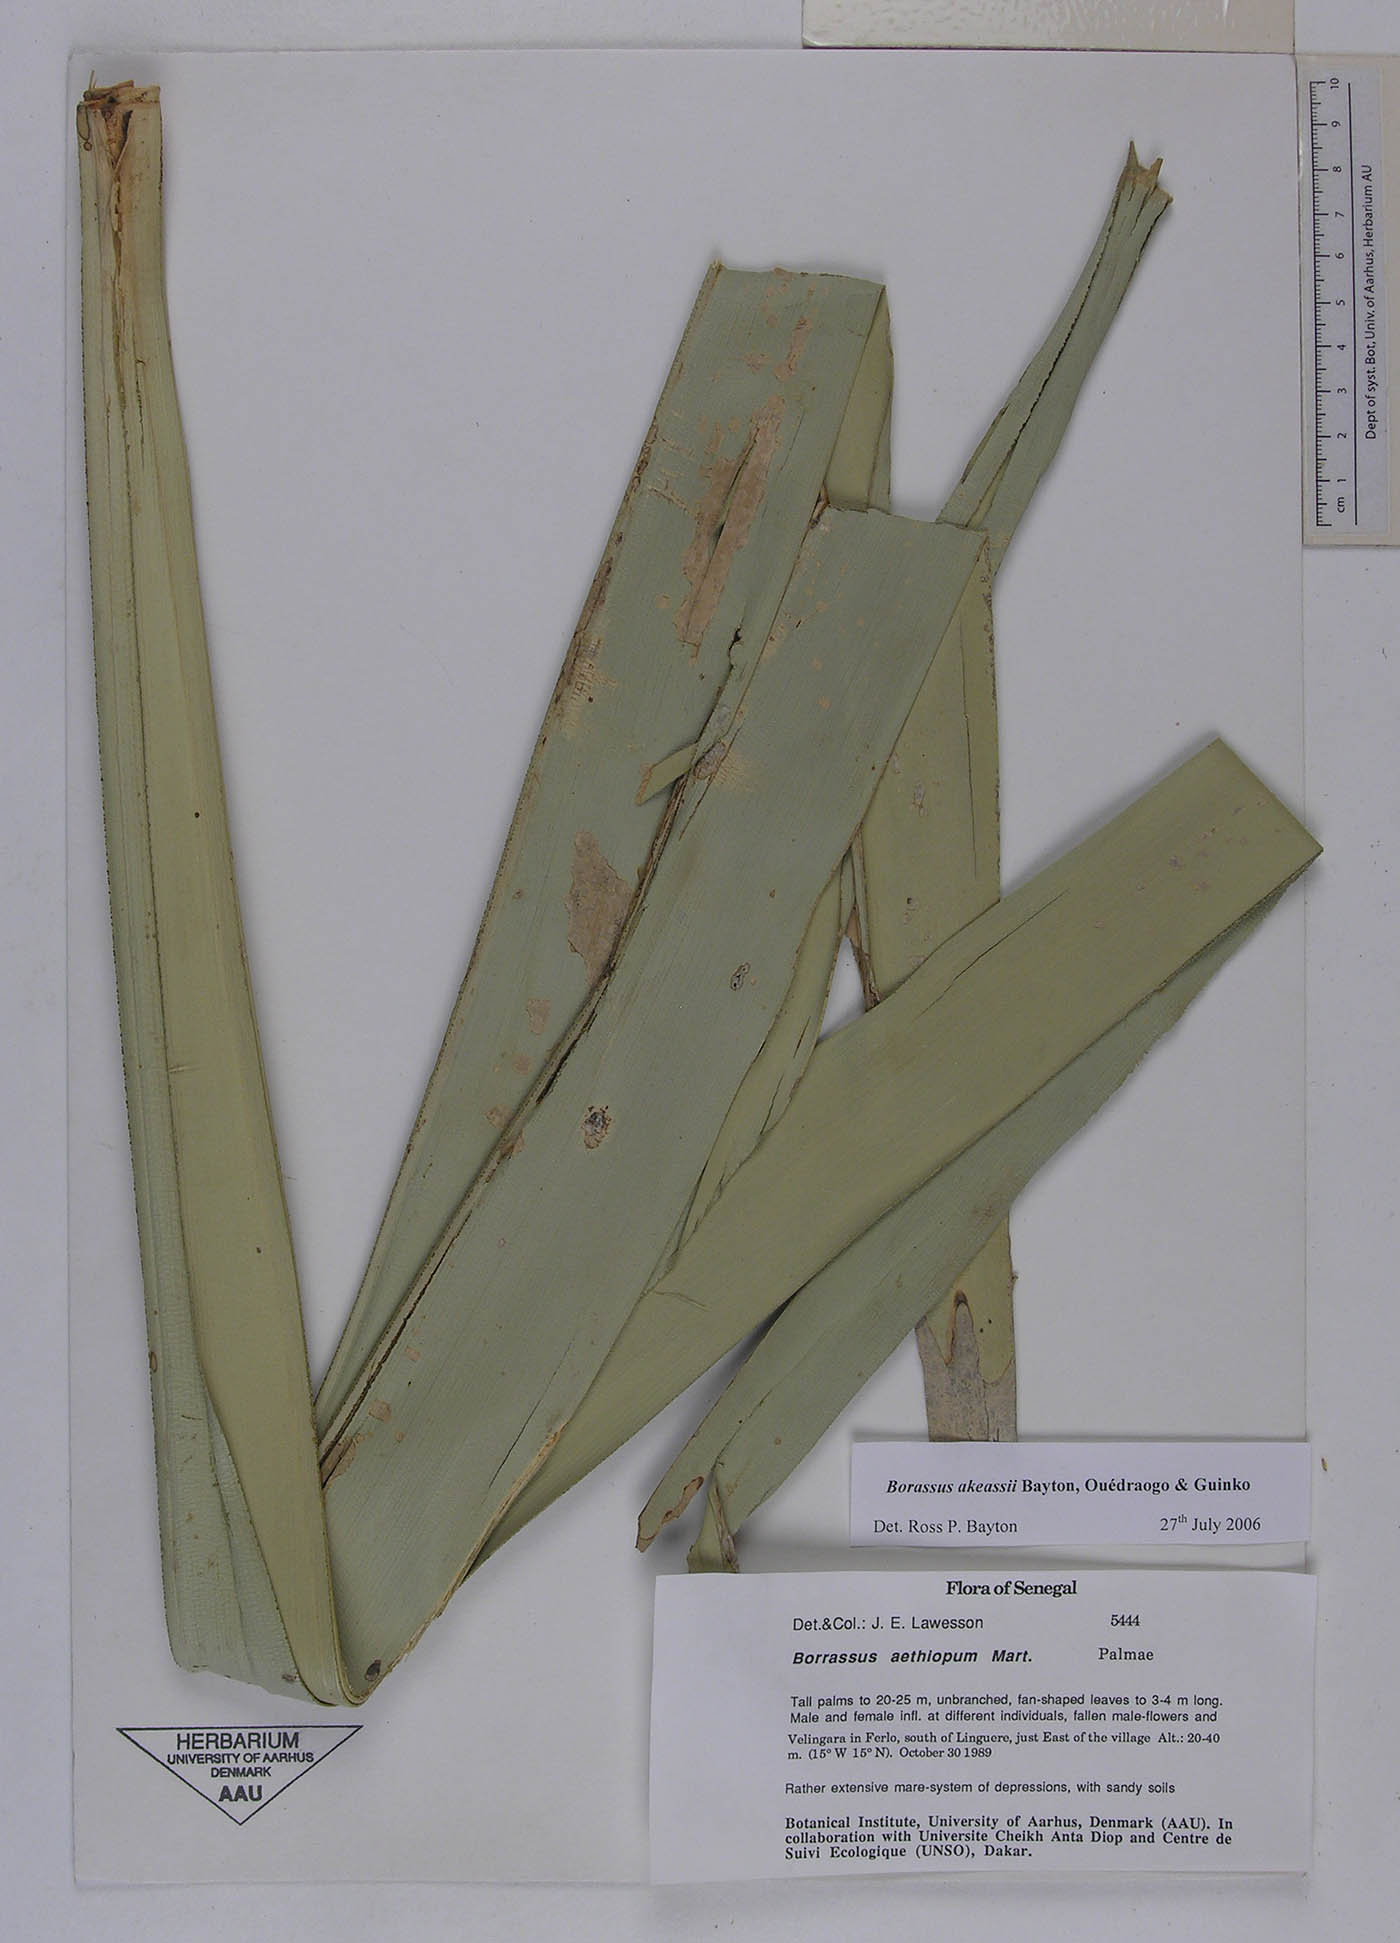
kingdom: Plantae
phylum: Tracheophyta
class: Liliopsida
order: Arecales
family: Arecaceae
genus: Borassus
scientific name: Borassus aethiopum
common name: Elephant palm
